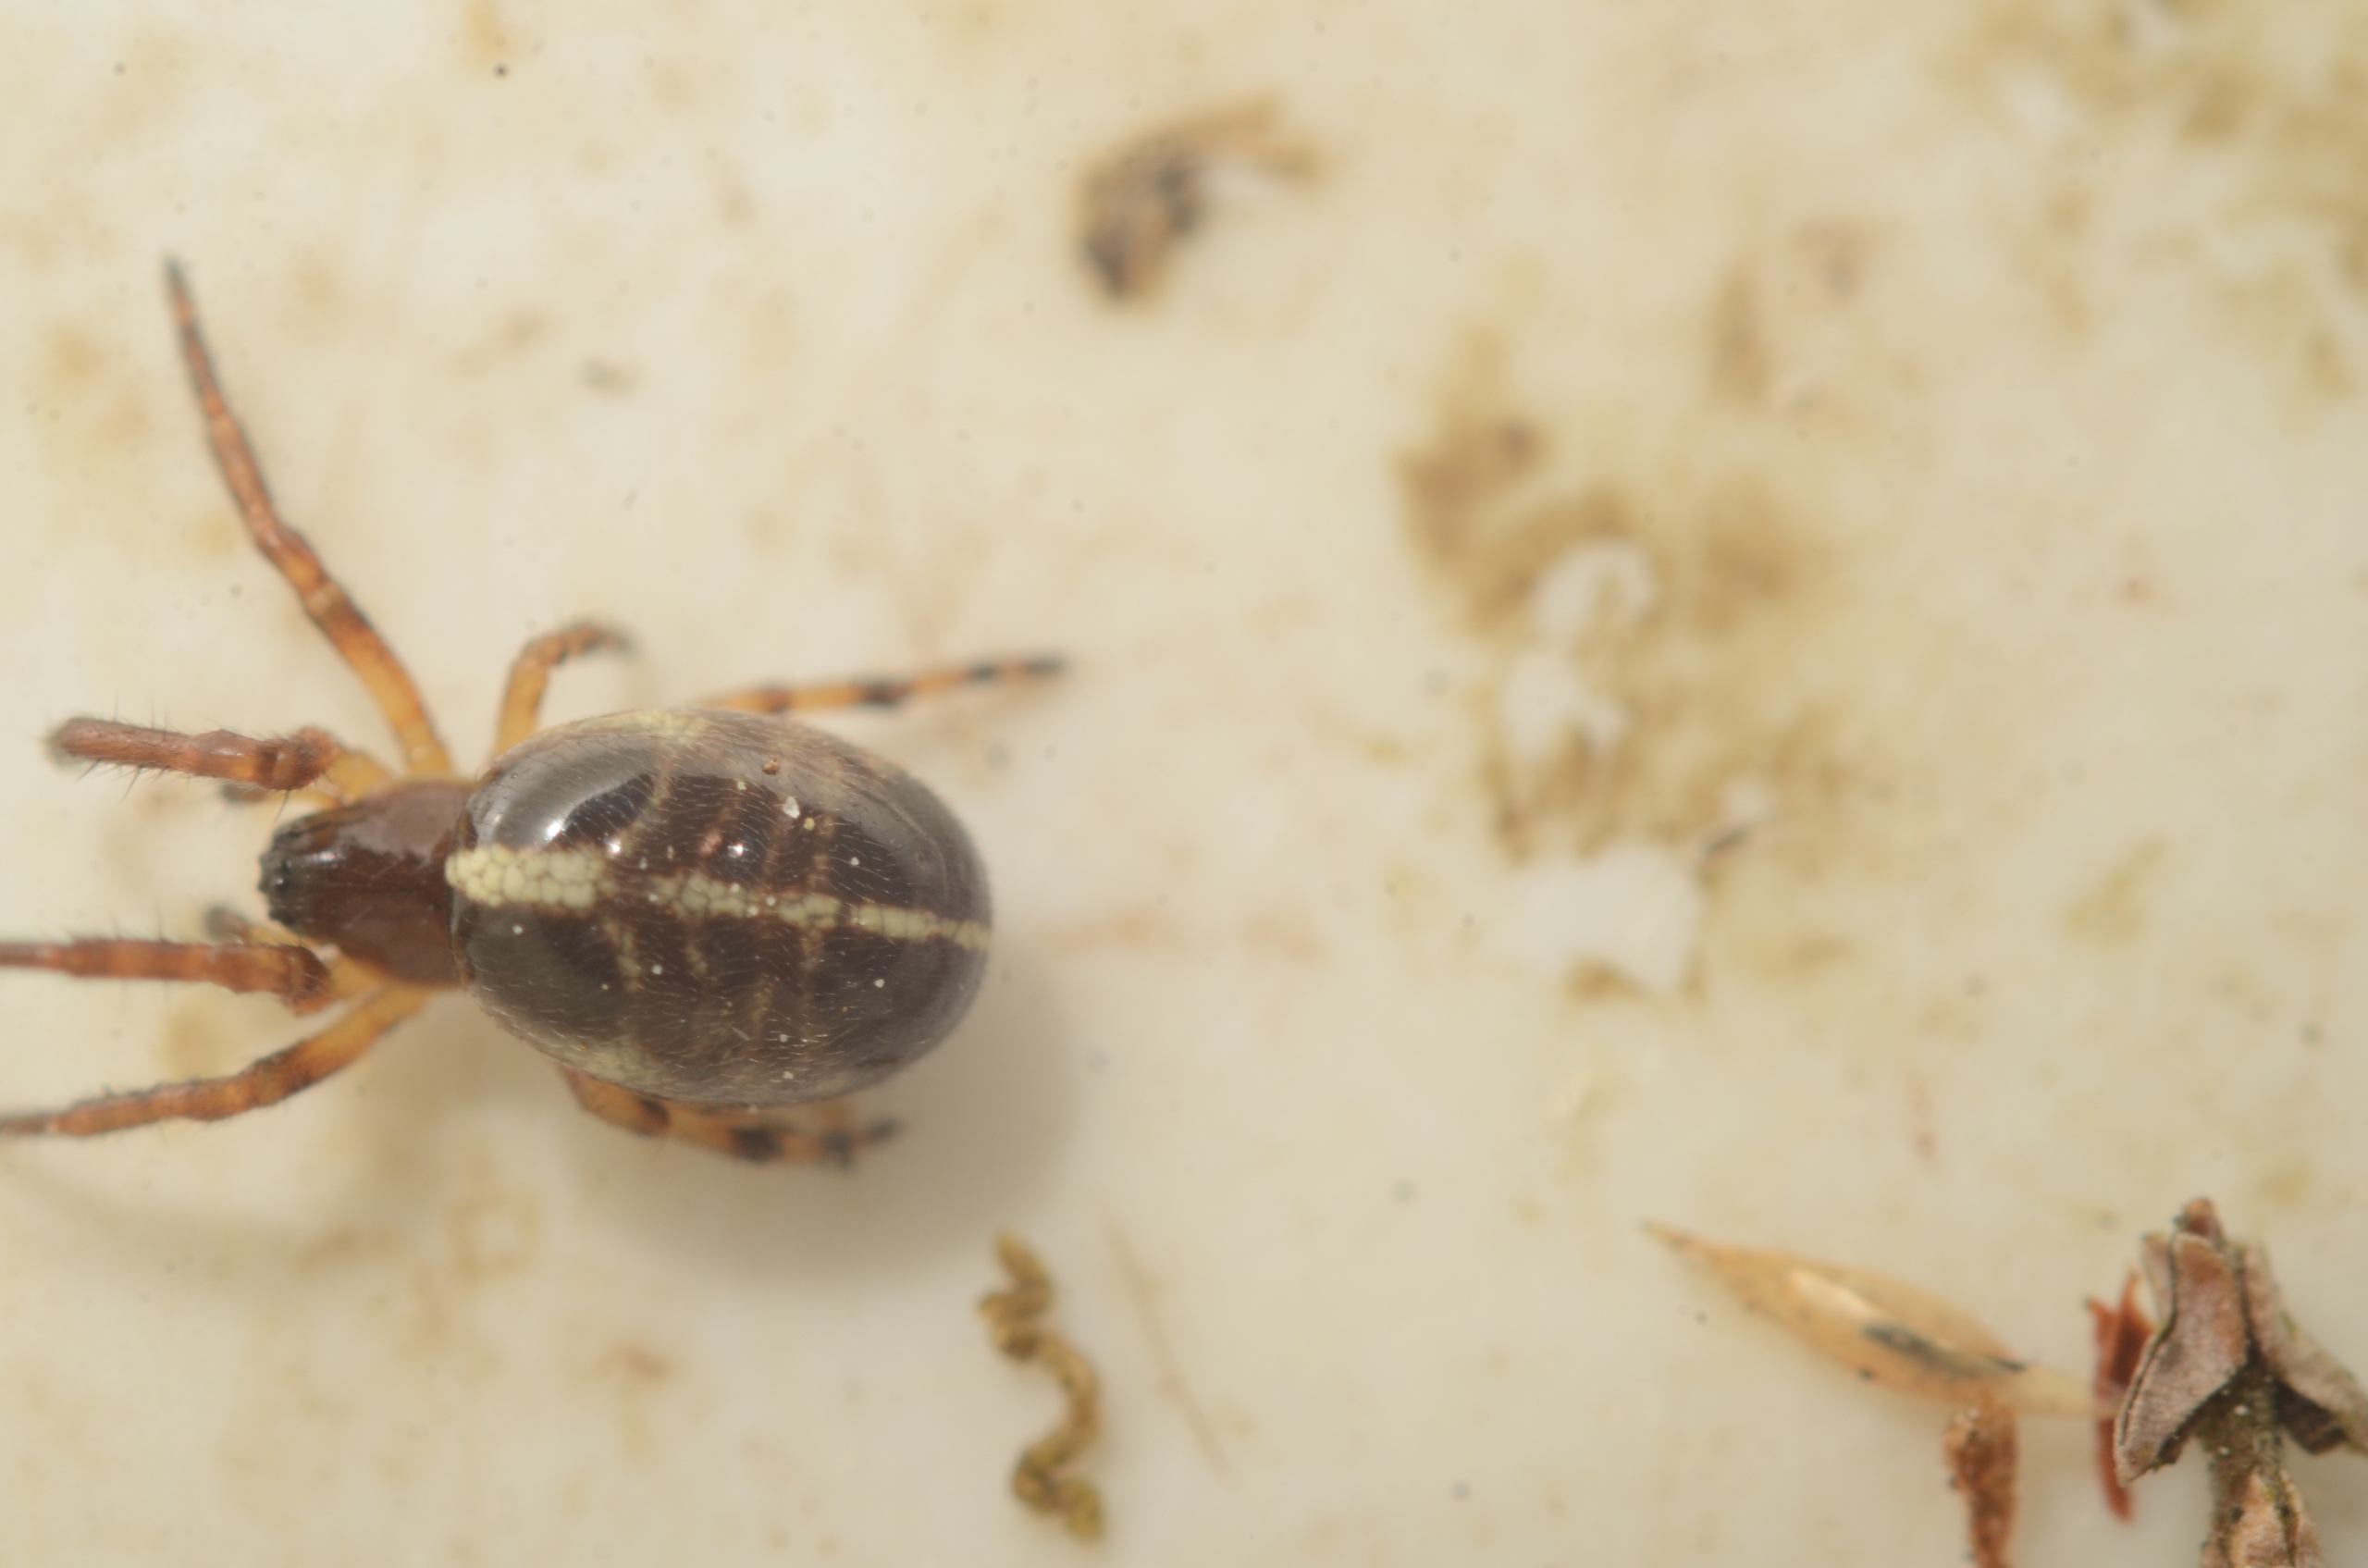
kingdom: Animalia
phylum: Arthropoda
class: Arachnida
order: Araneae
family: Araneidae
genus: Singa
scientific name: Singa hamata
